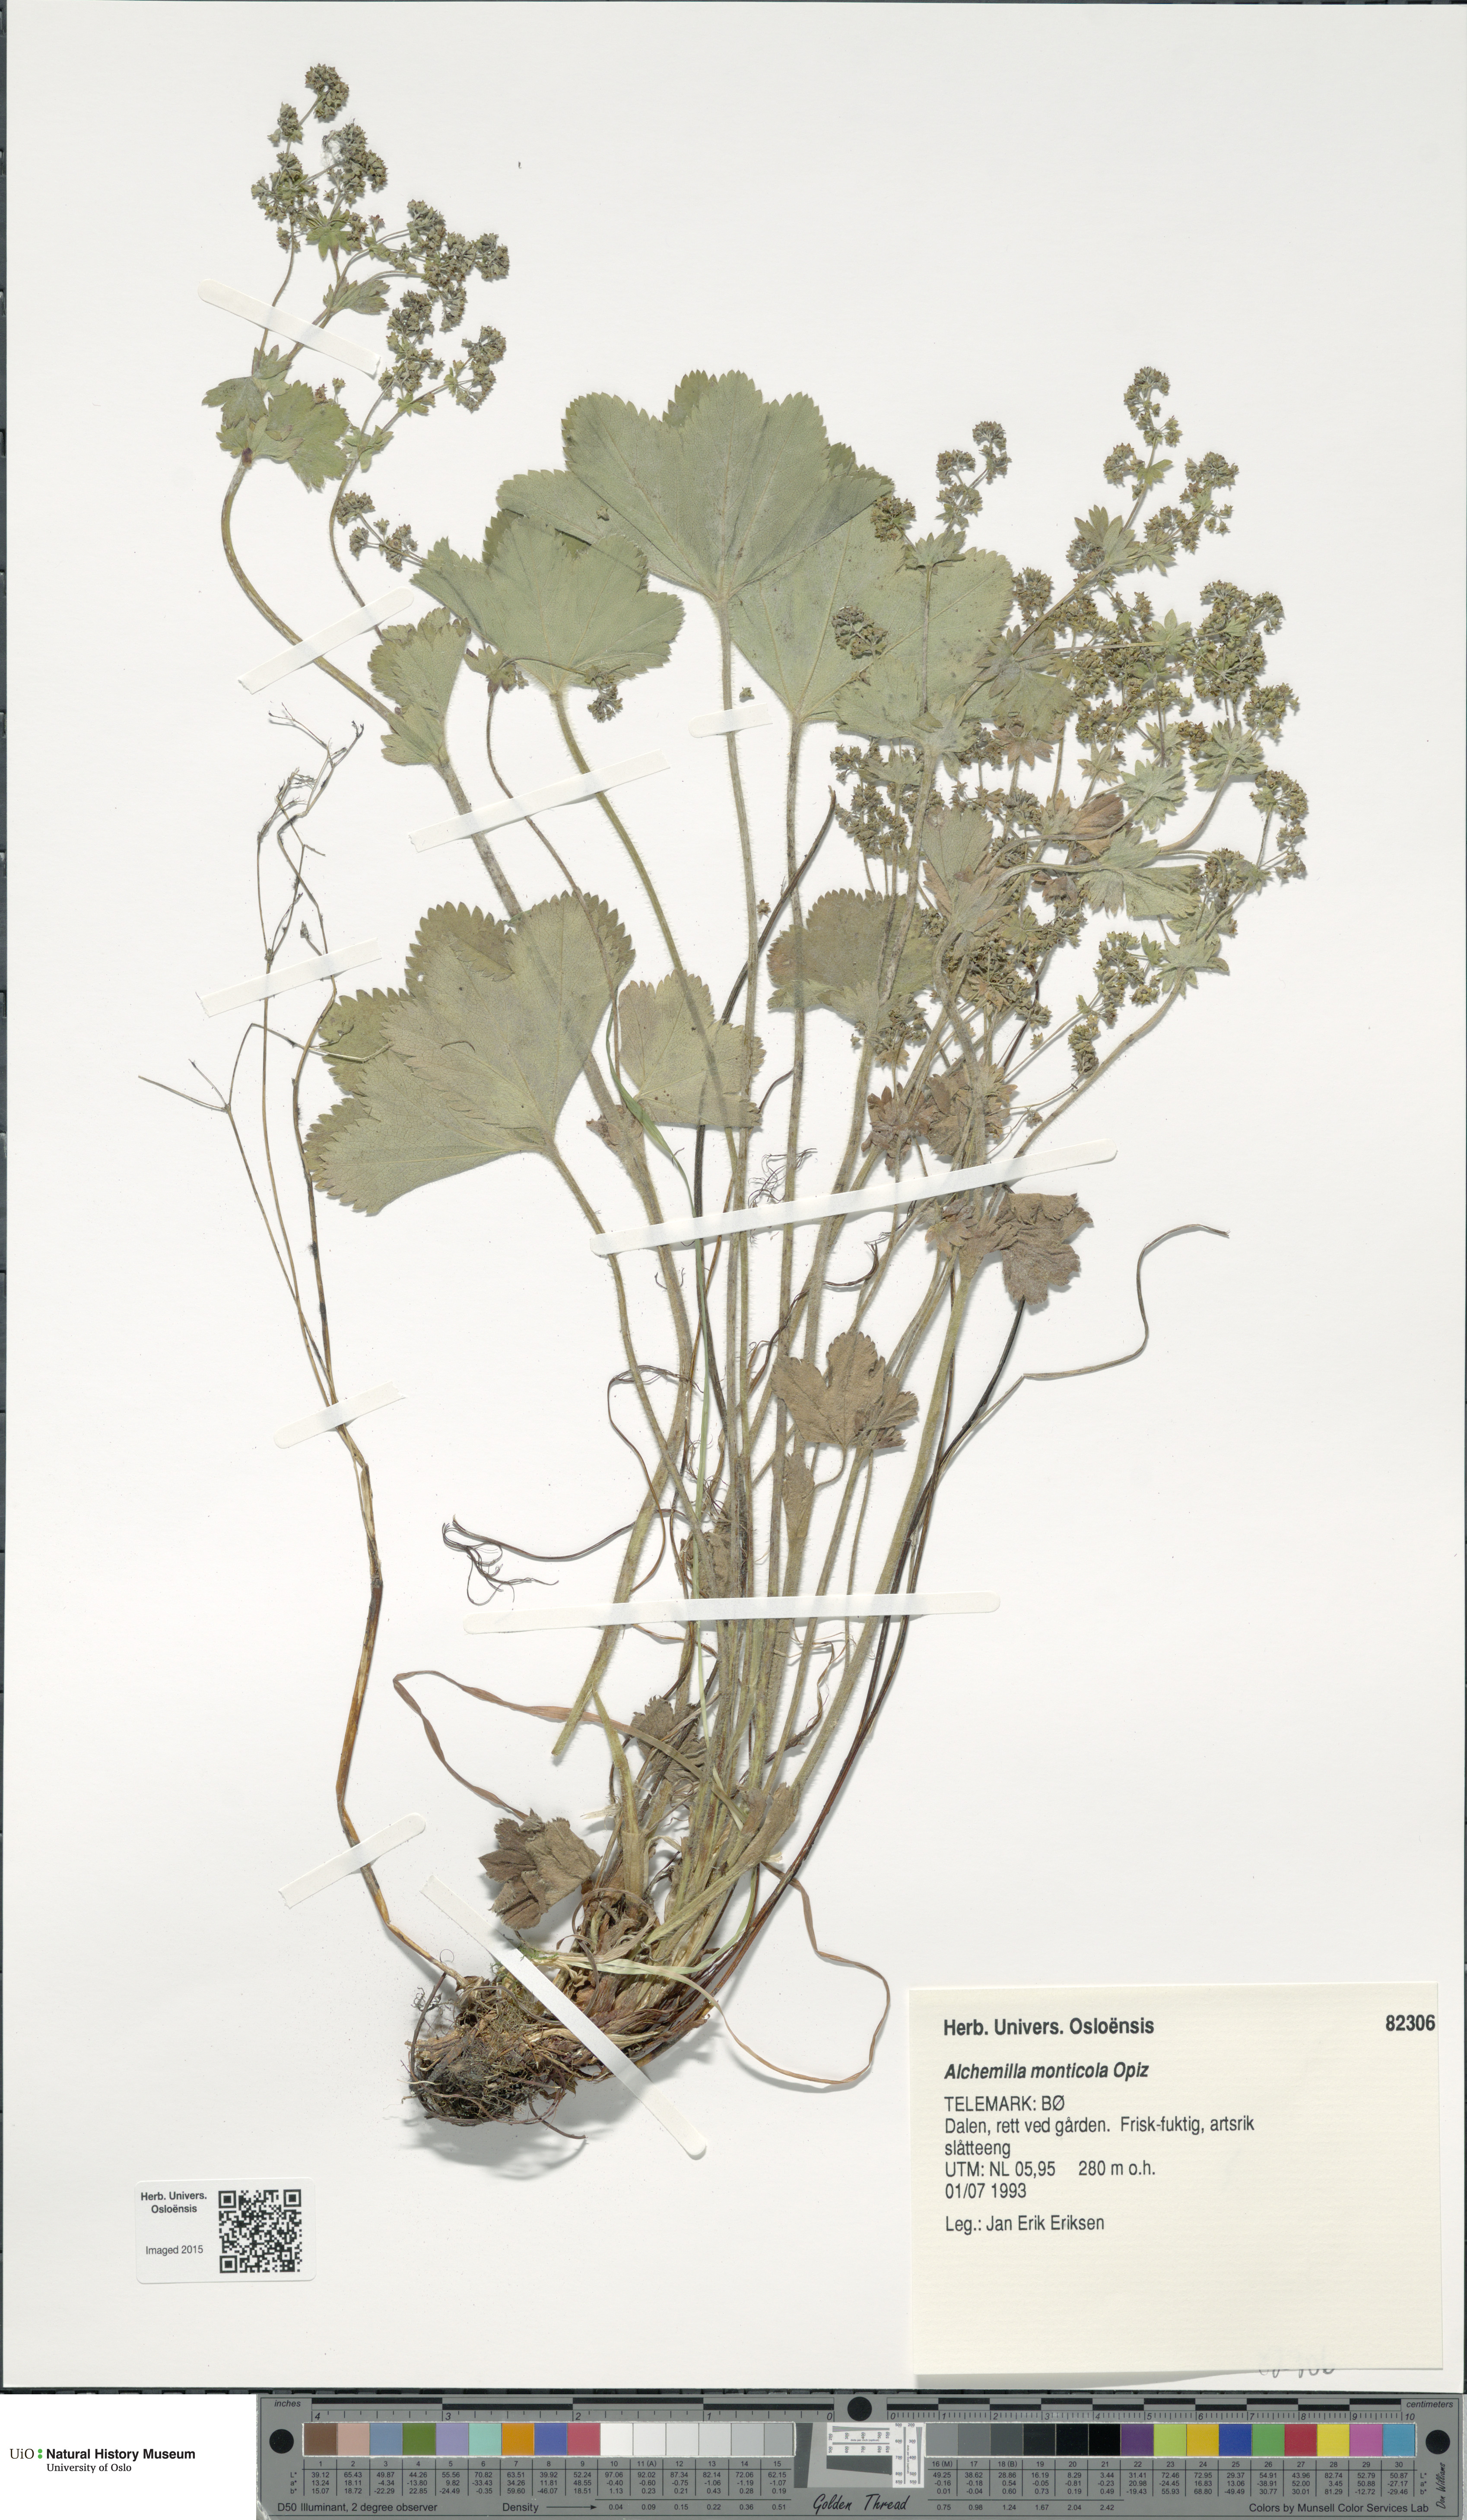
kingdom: Plantae
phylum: Tracheophyta
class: Magnoliopsida
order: Rosales
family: Rosaceae
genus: Alchemilla
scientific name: Alchemilla monticola
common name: Hairy lady's mantle
